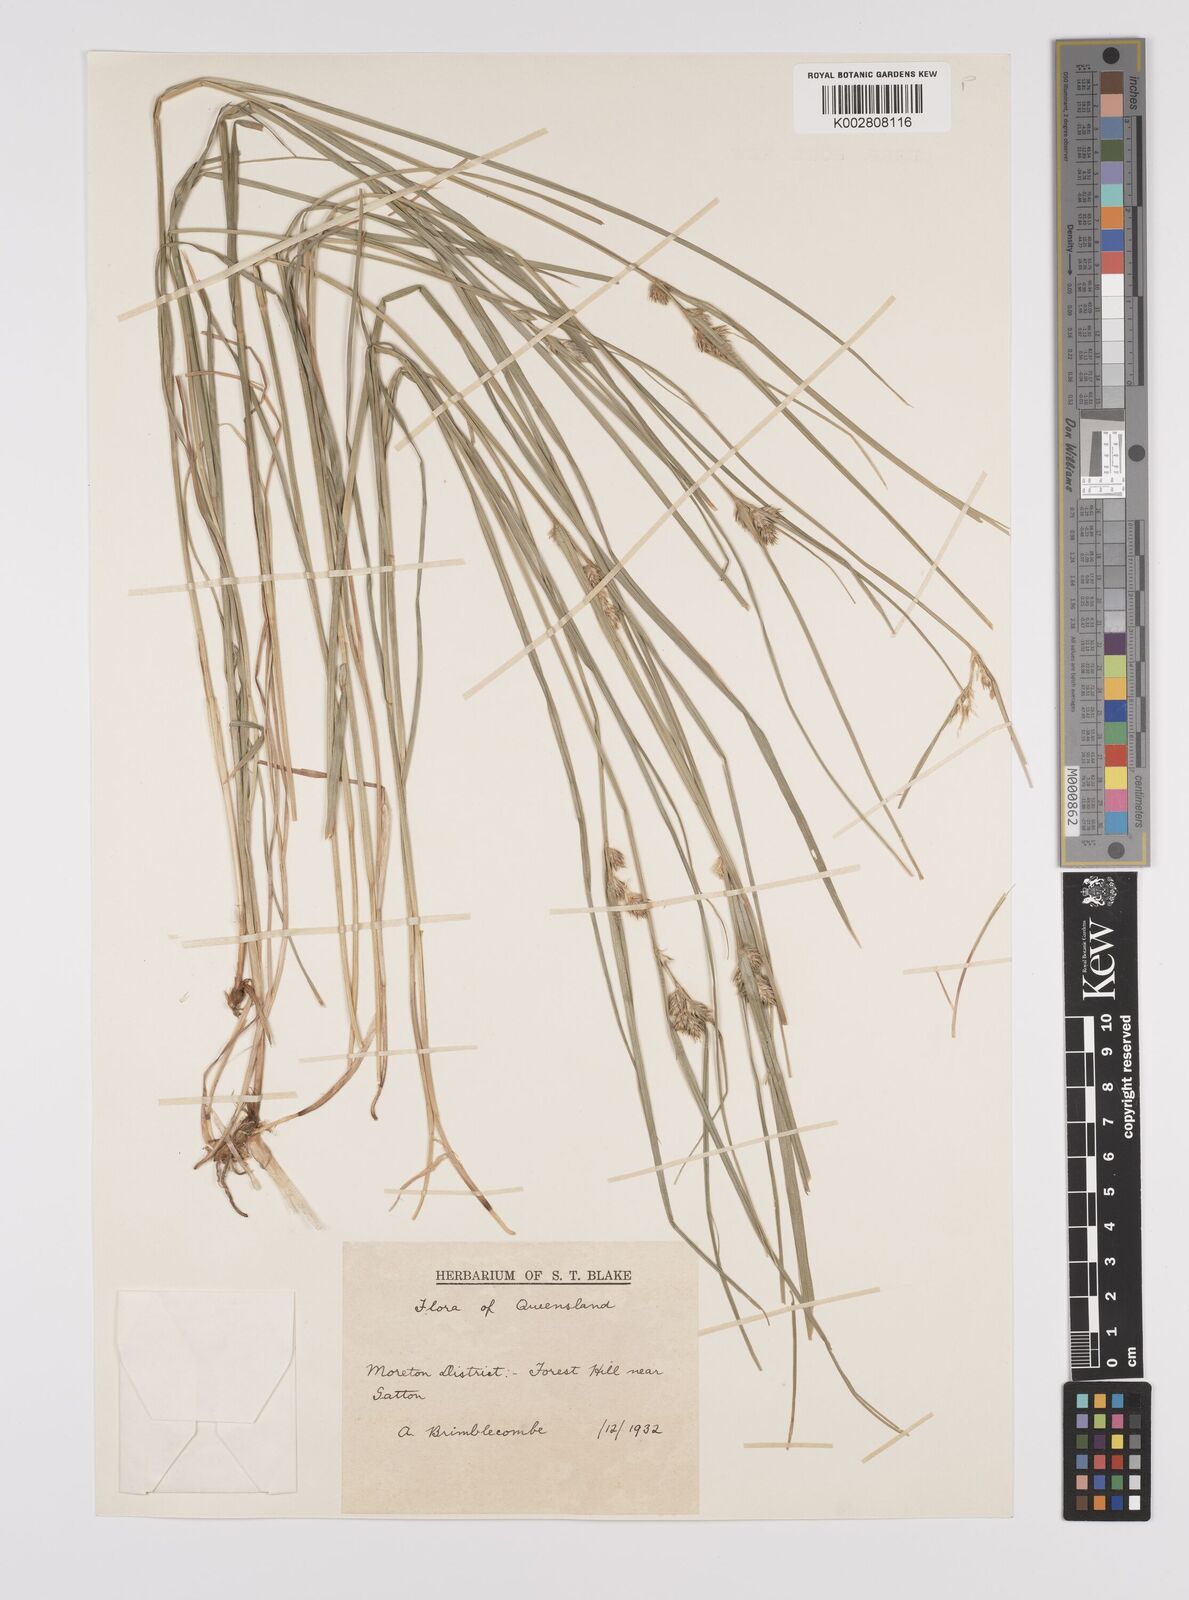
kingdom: Plantae
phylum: Tracheophyta
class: Liliopsida
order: Poales
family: Cyperaceae
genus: Carex
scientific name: Carex lophocarpa
